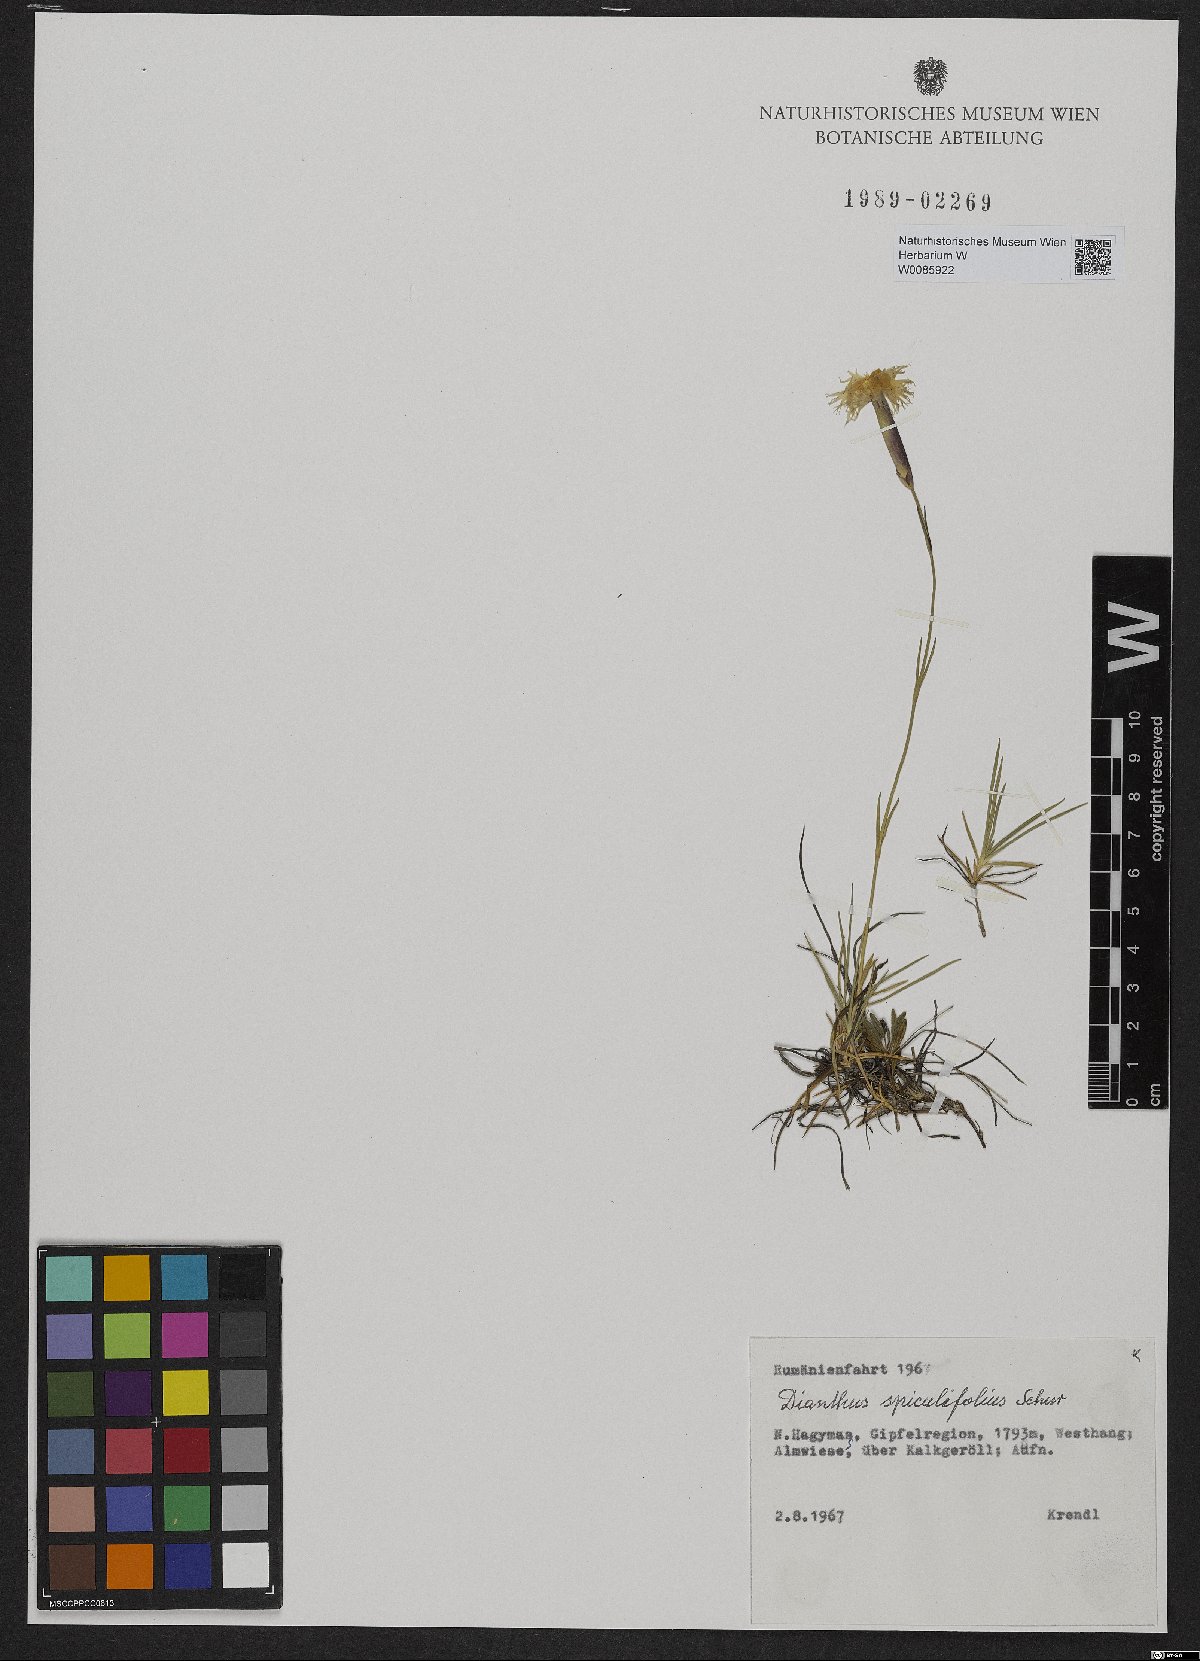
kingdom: Plantae
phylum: Tracheophyta
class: Magnoliopsida
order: Caryophyllales
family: Caryophyllaceae
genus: Dianthus
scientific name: Dianthus spiculifolius
